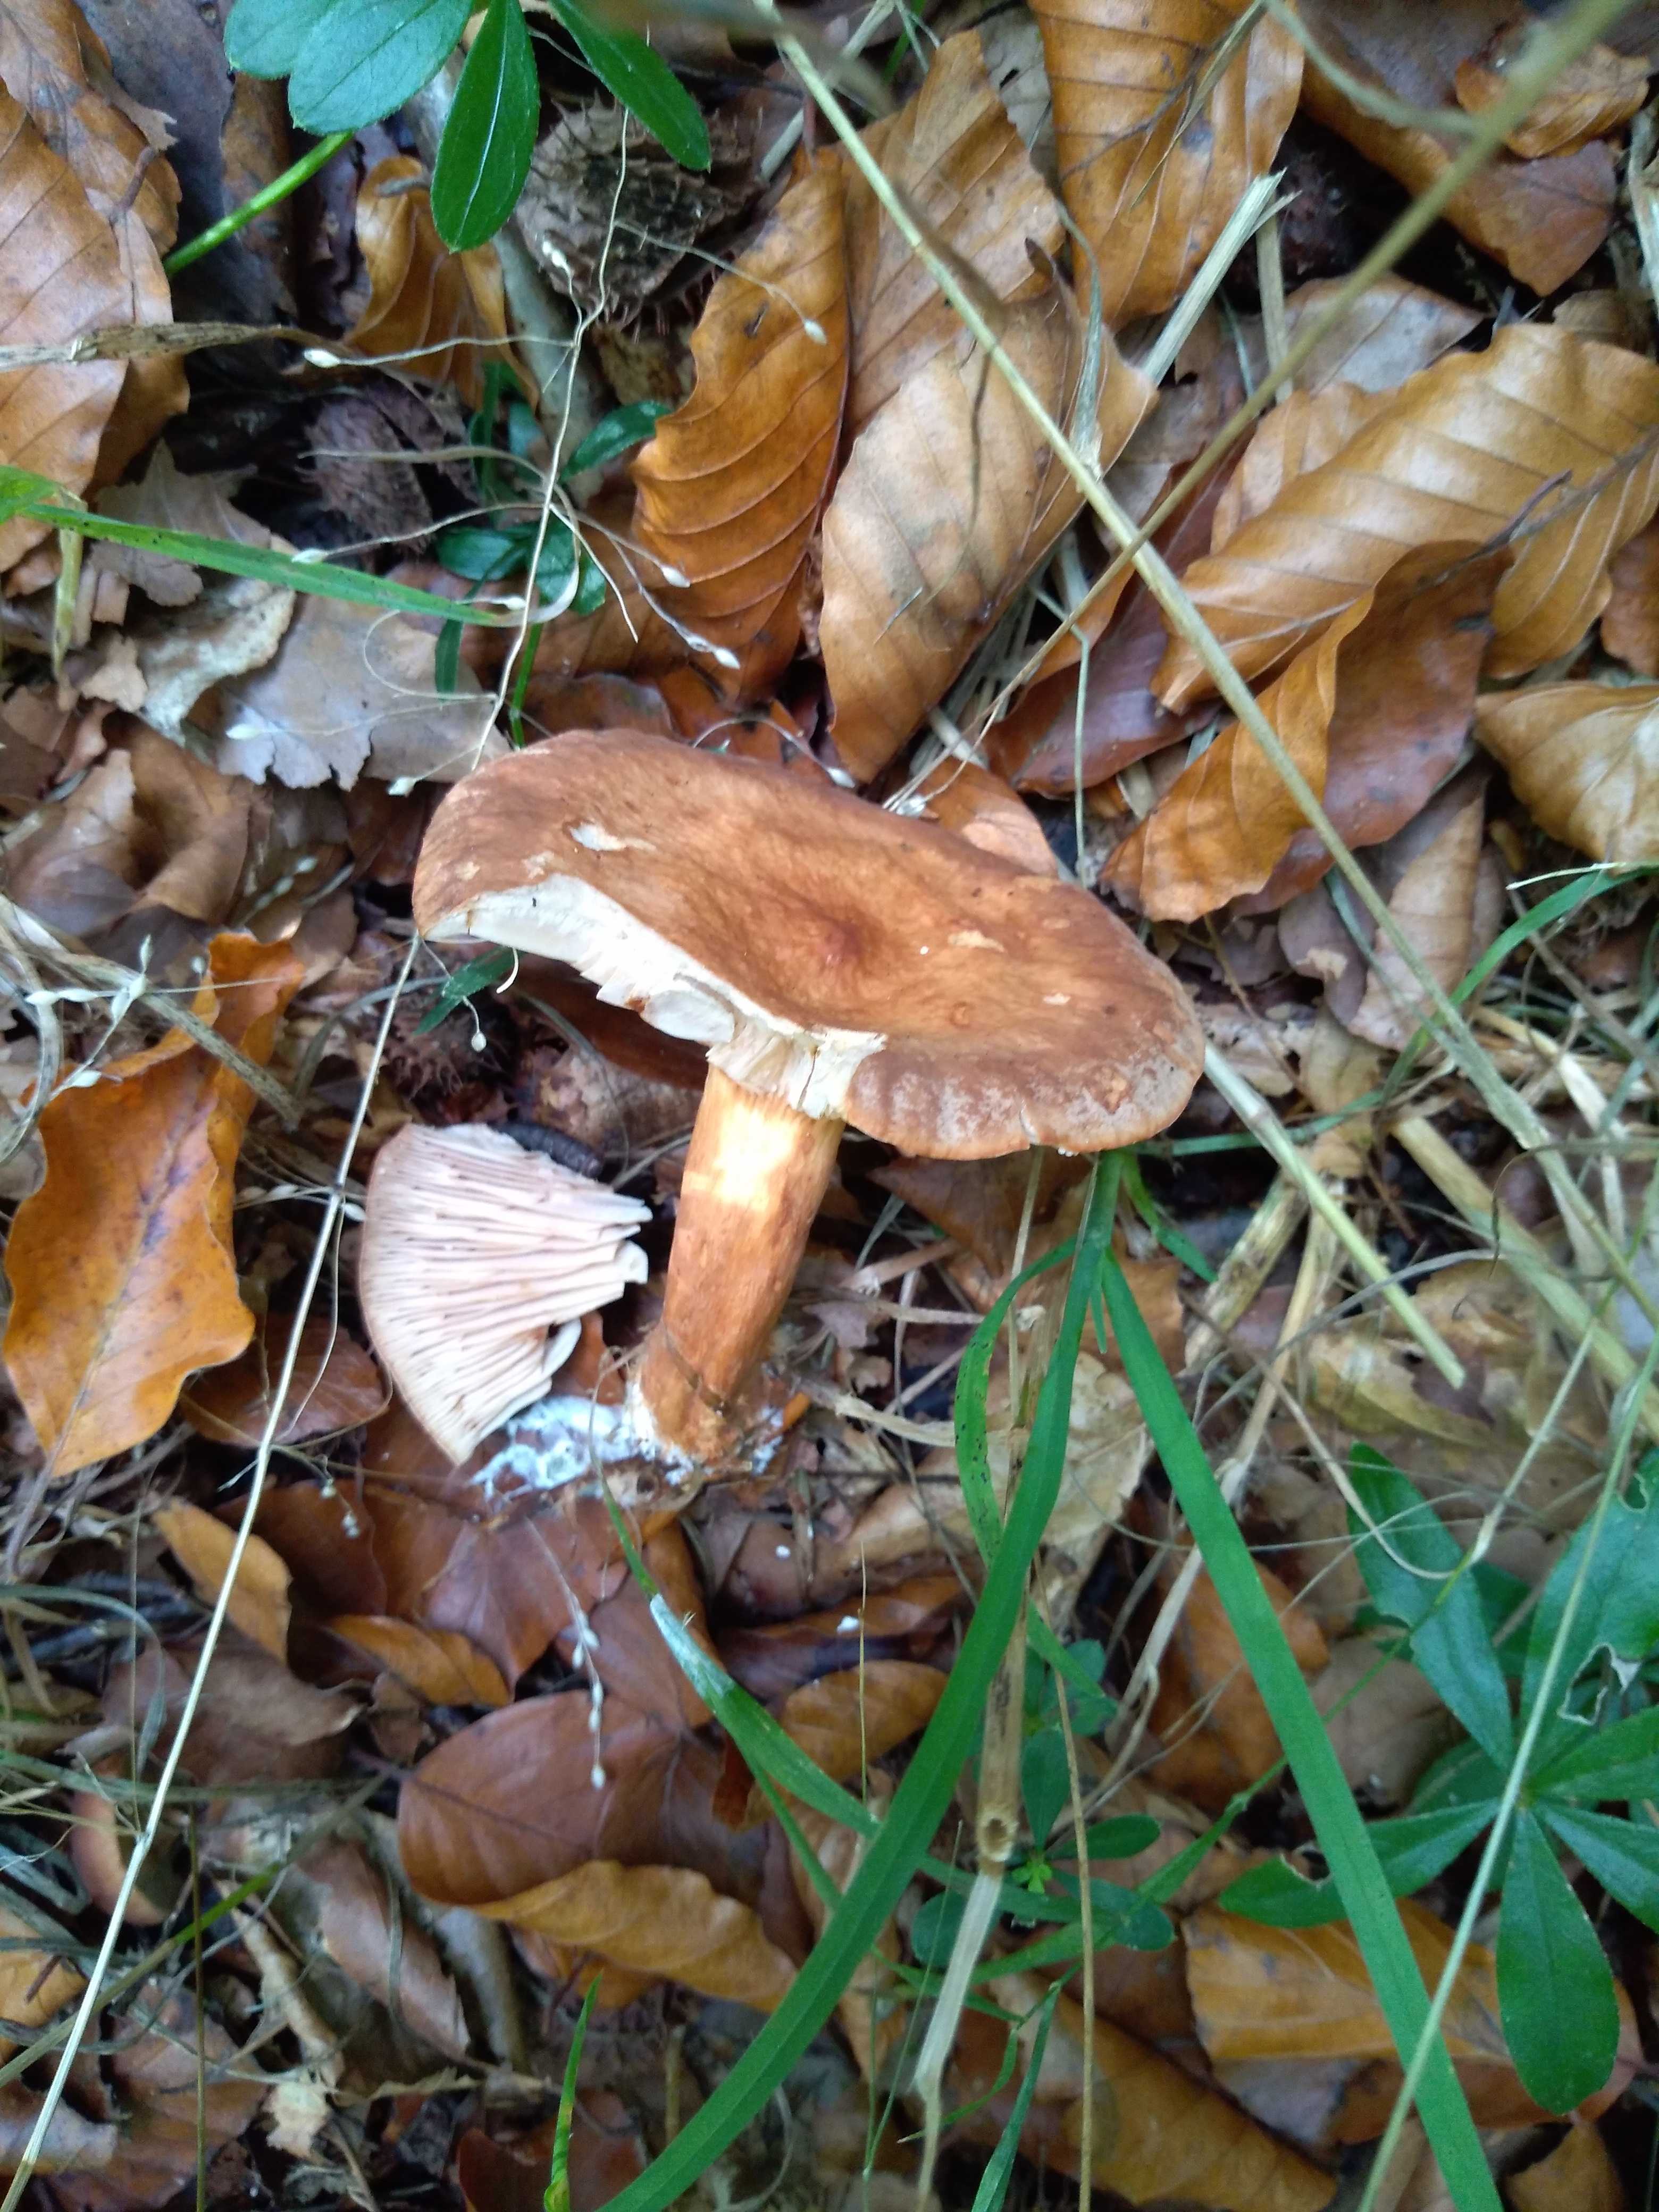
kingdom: Fungi
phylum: Basidiomycota
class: Agaricomycetes
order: Russulales
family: Russulaceae
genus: Lactarius
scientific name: Lactarius subdulcis
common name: sødlig mælkehat
